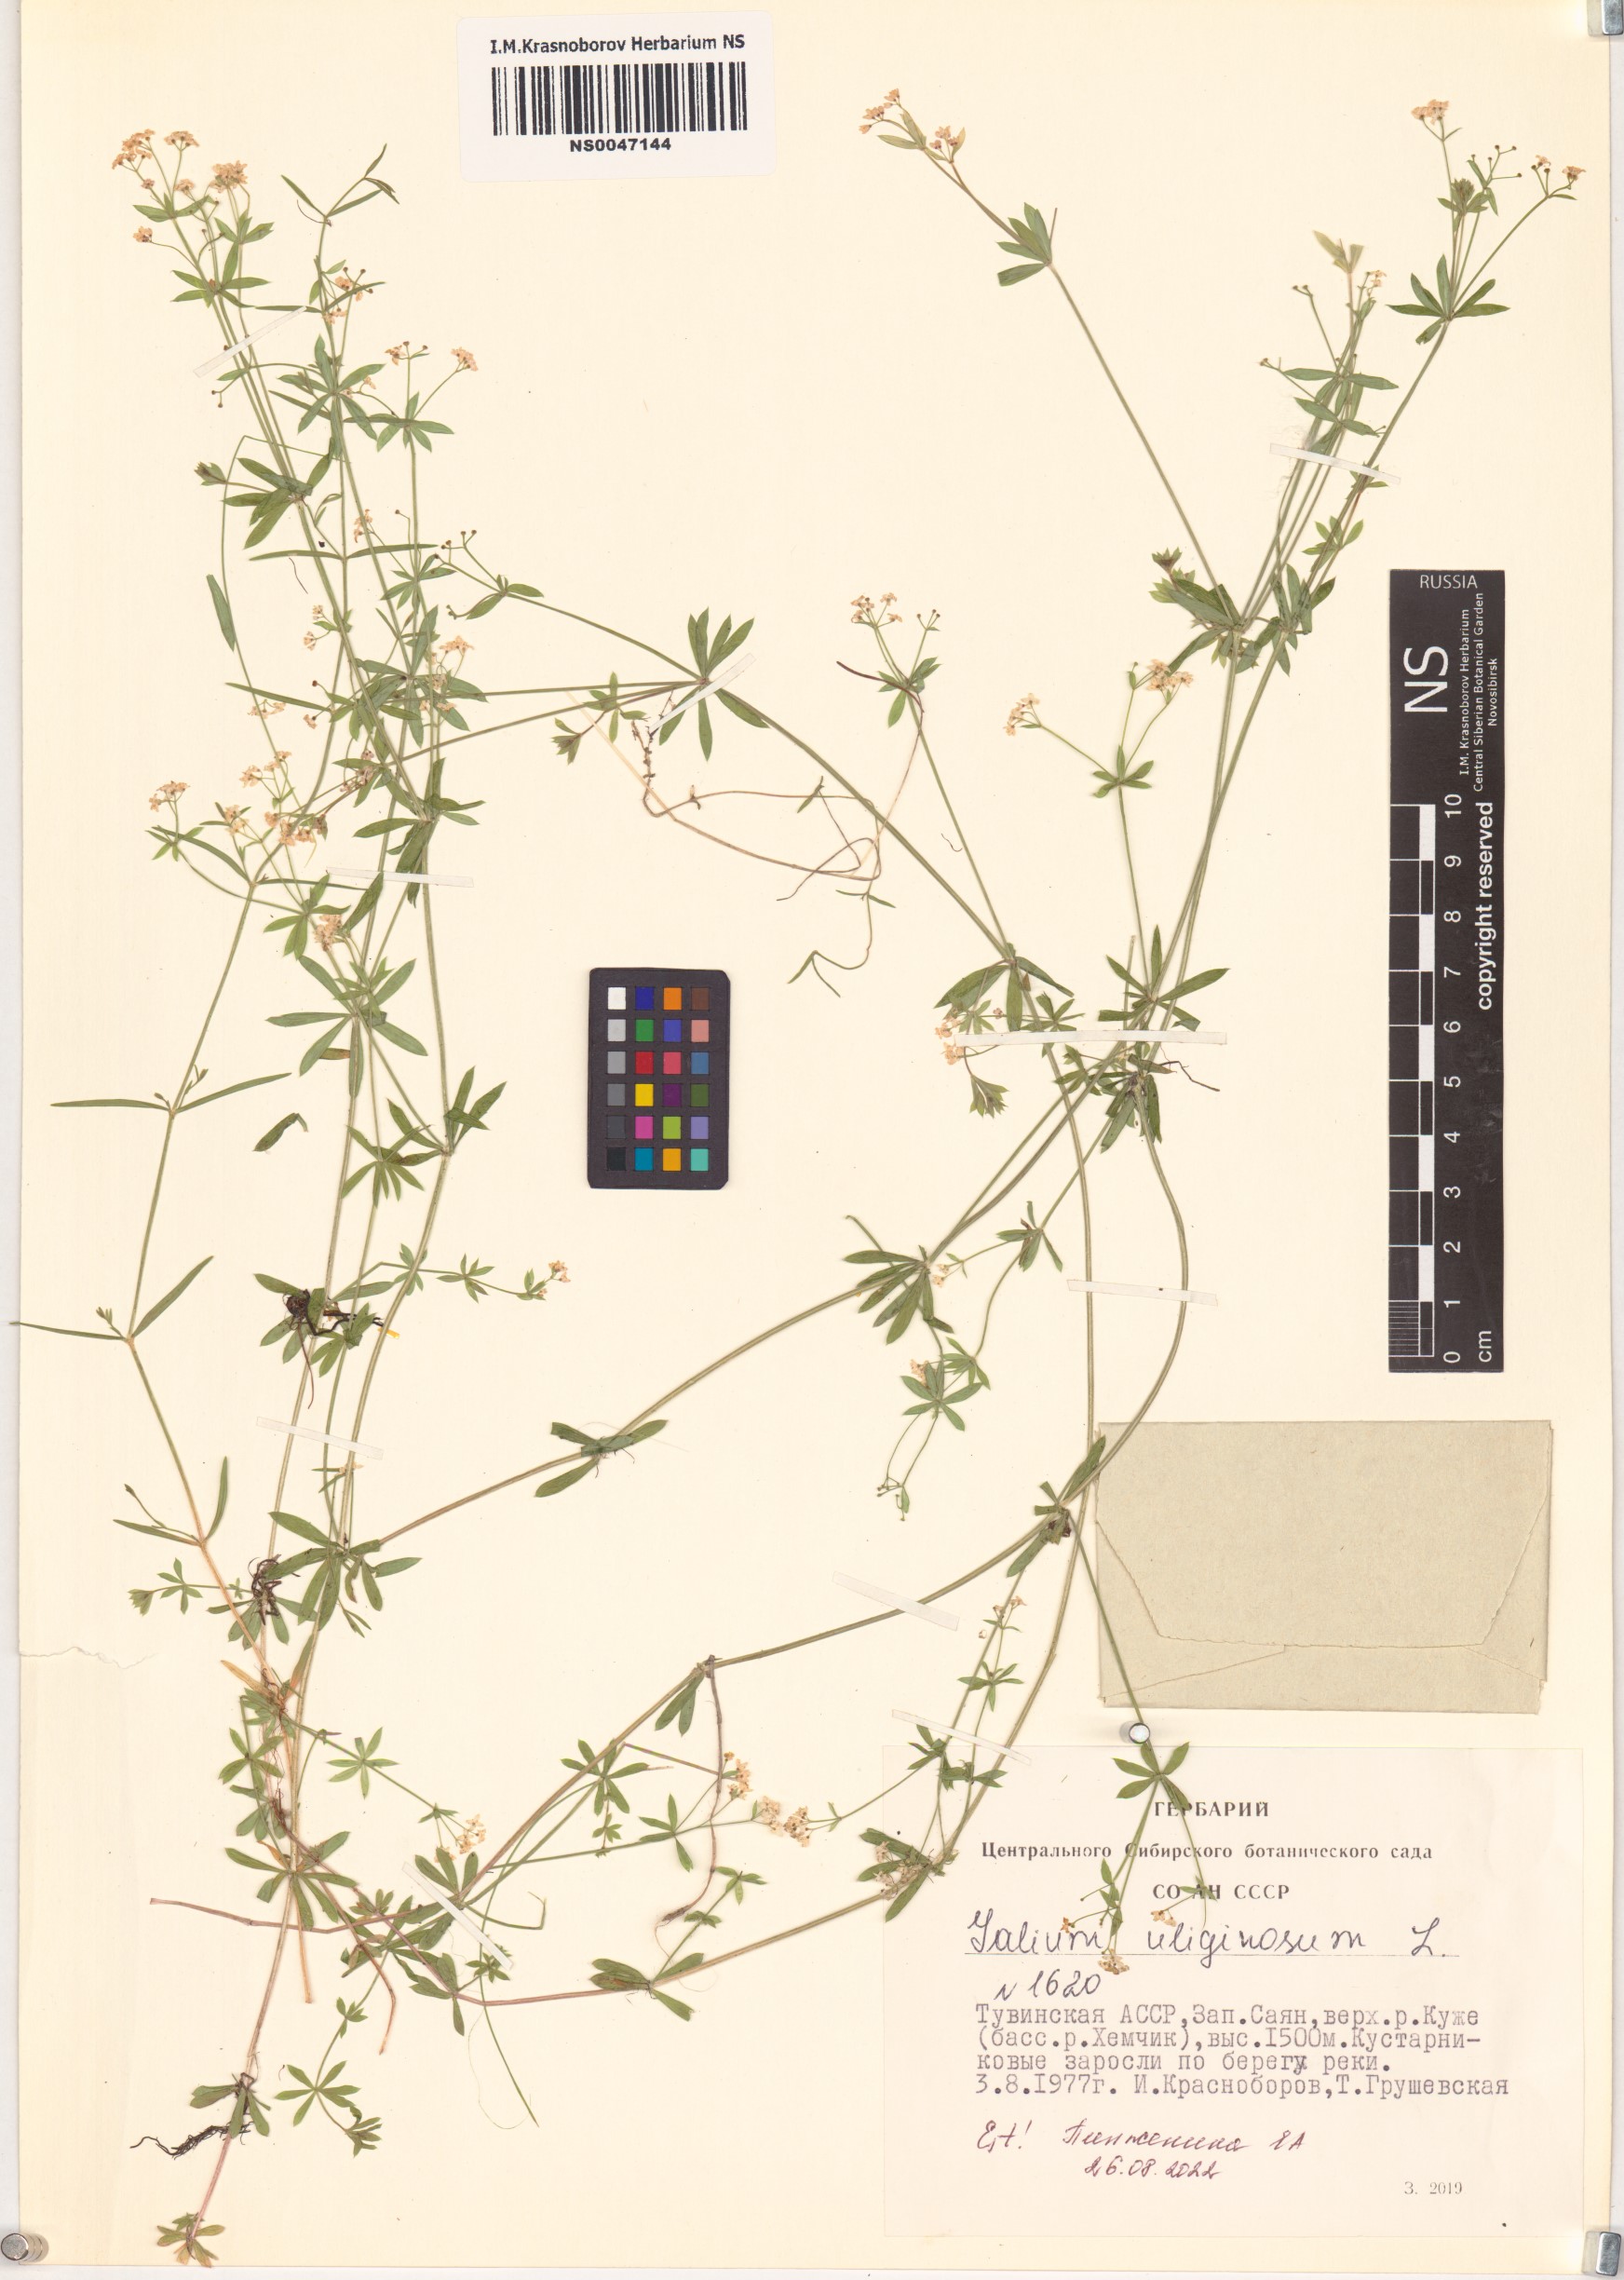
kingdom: Plantae
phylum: Tracheophyta
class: Magnoliopsida
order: Gentianales
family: Rubiaceae
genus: Galium
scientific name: Galium uliginosum
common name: Fen bedstraw
